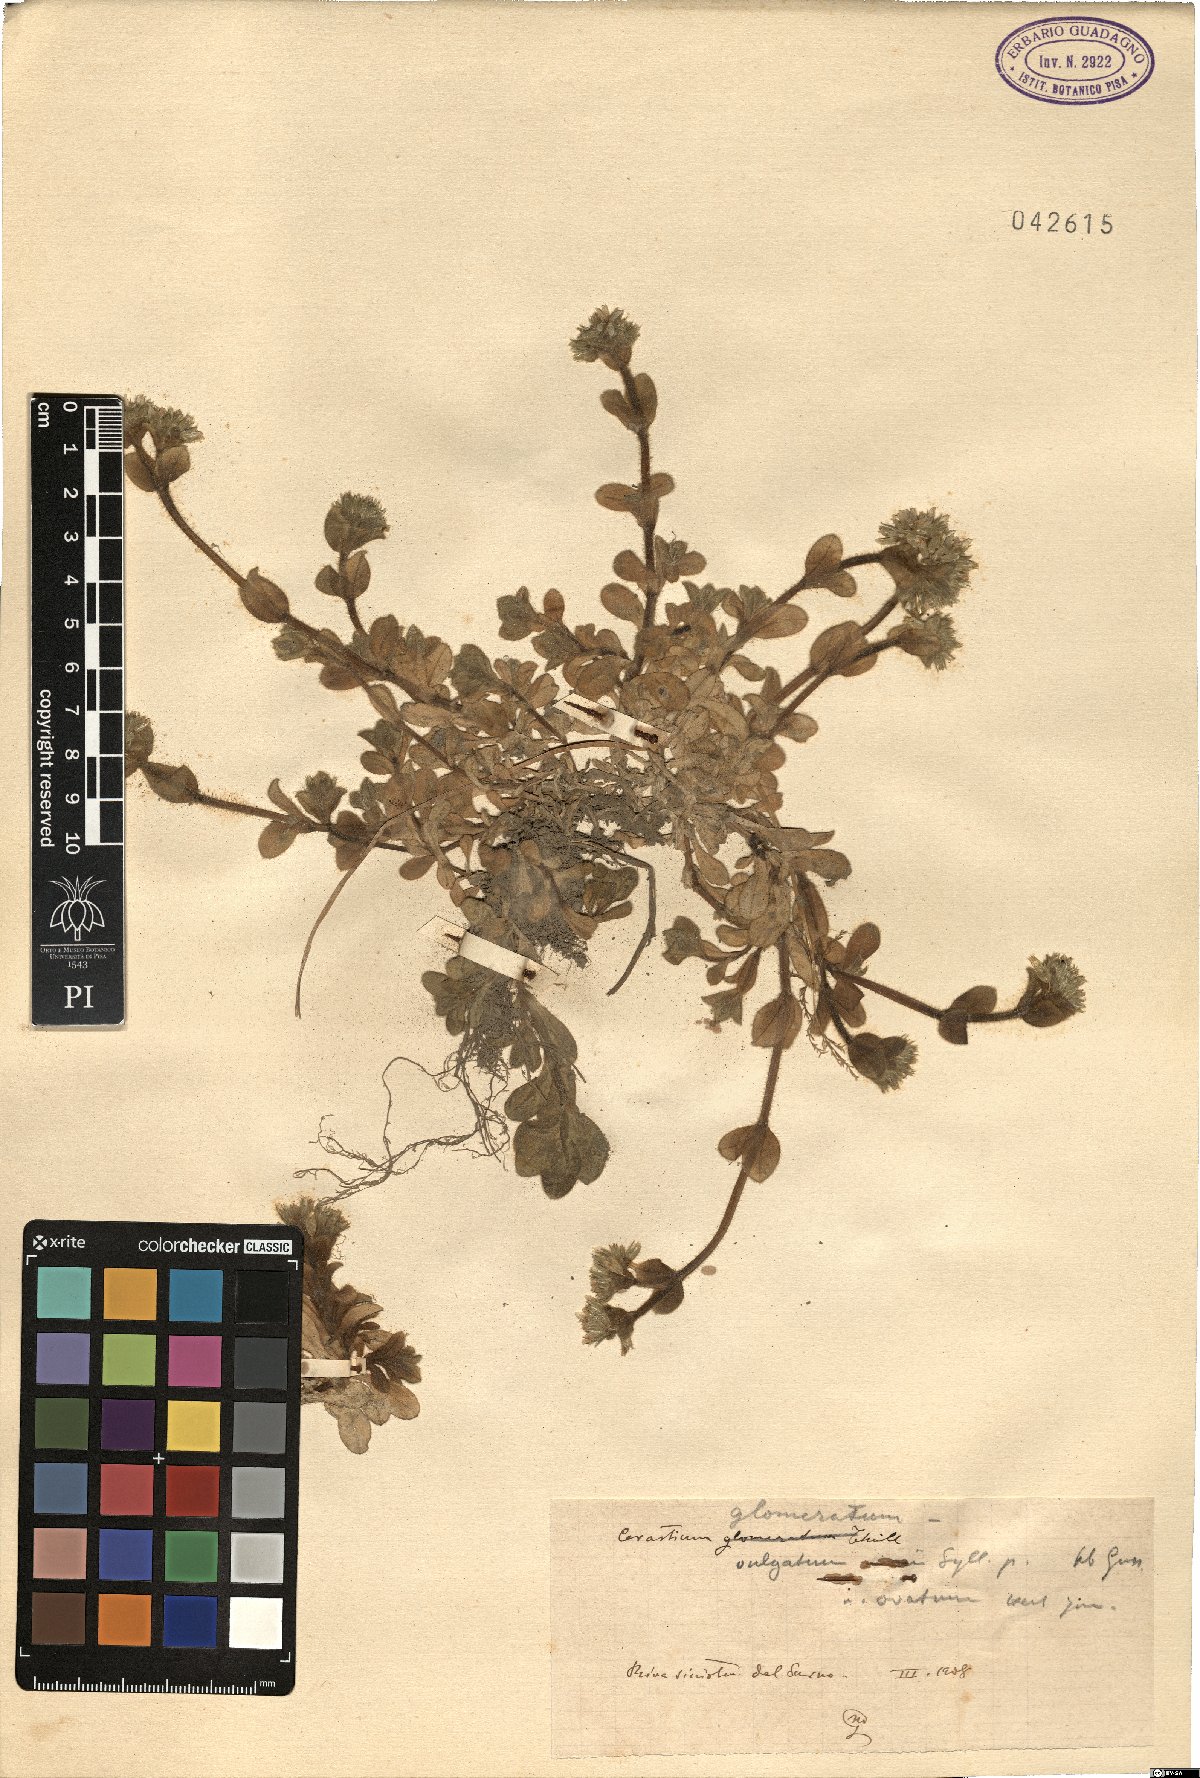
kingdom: Plantae
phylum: Tracheophyta
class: Magnoliopsida
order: Caryophyllales
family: Caryophyllaceae
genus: Cerastium
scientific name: Cerastium glomeratum
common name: Sticky chickweed
